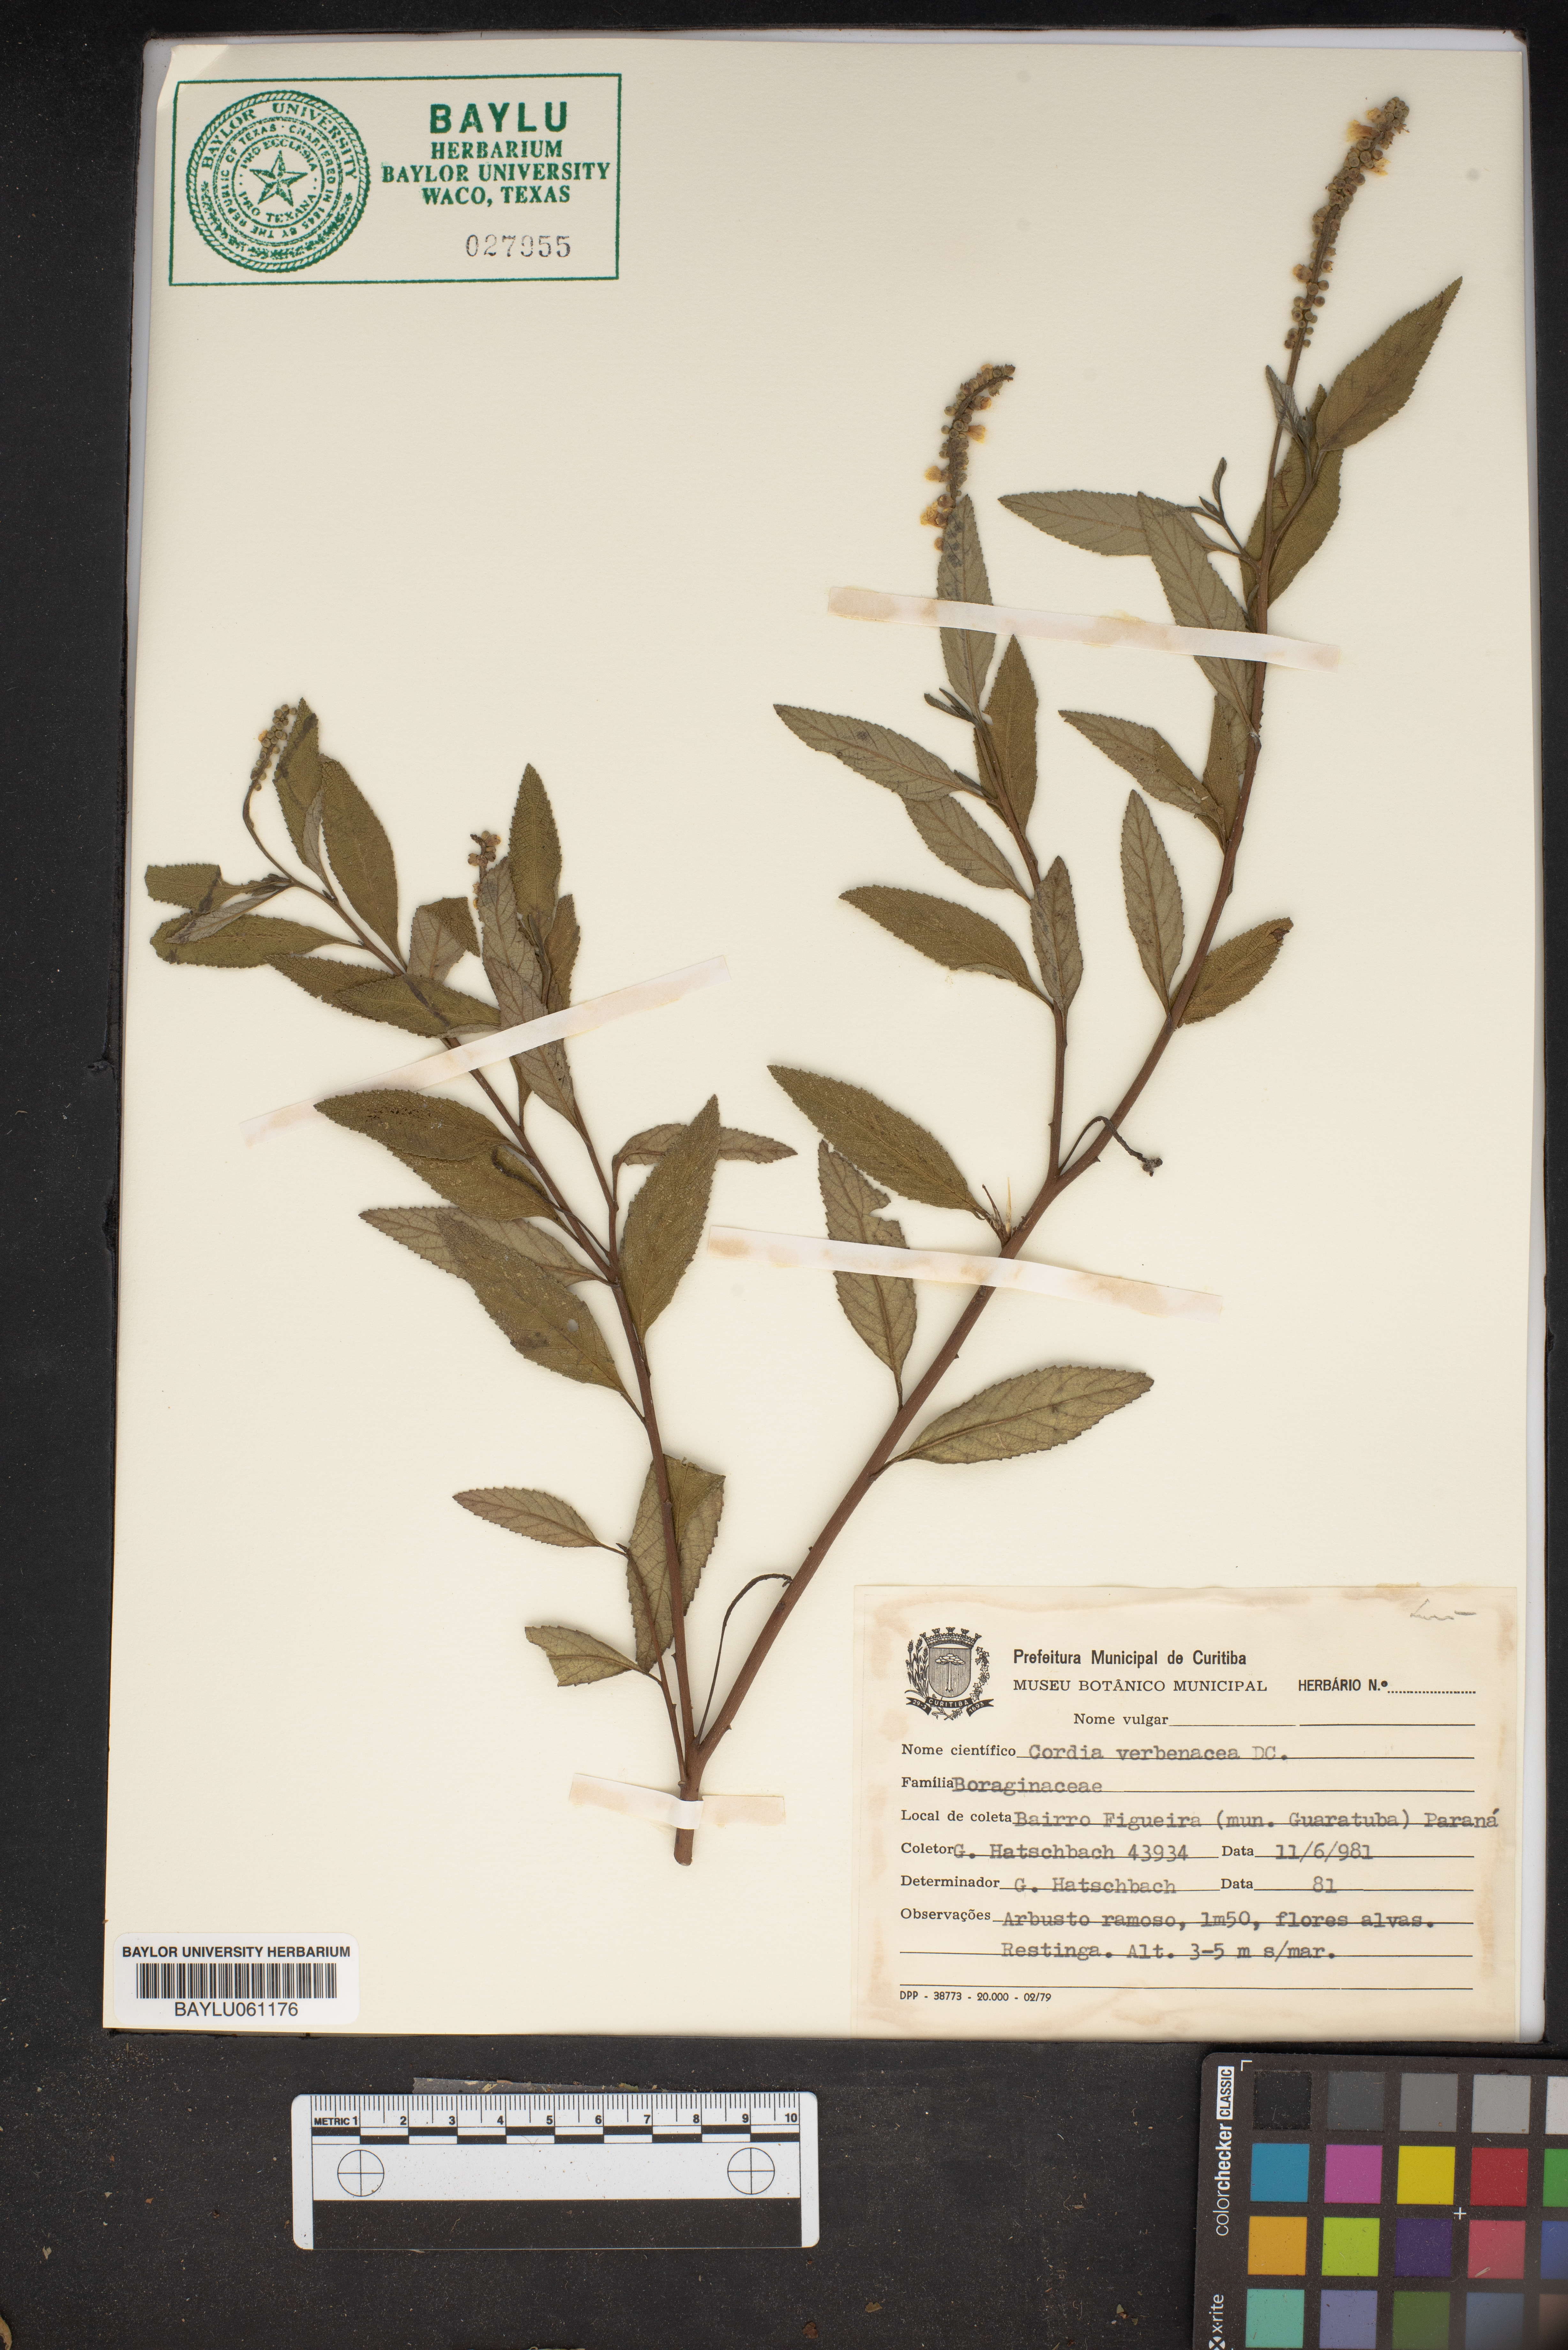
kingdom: Plantae
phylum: Tracheophyta
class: Magnoliopsida
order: Boraginales
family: Cordiaceae
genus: Varronia
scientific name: Varronia curassavica
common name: Black sage
